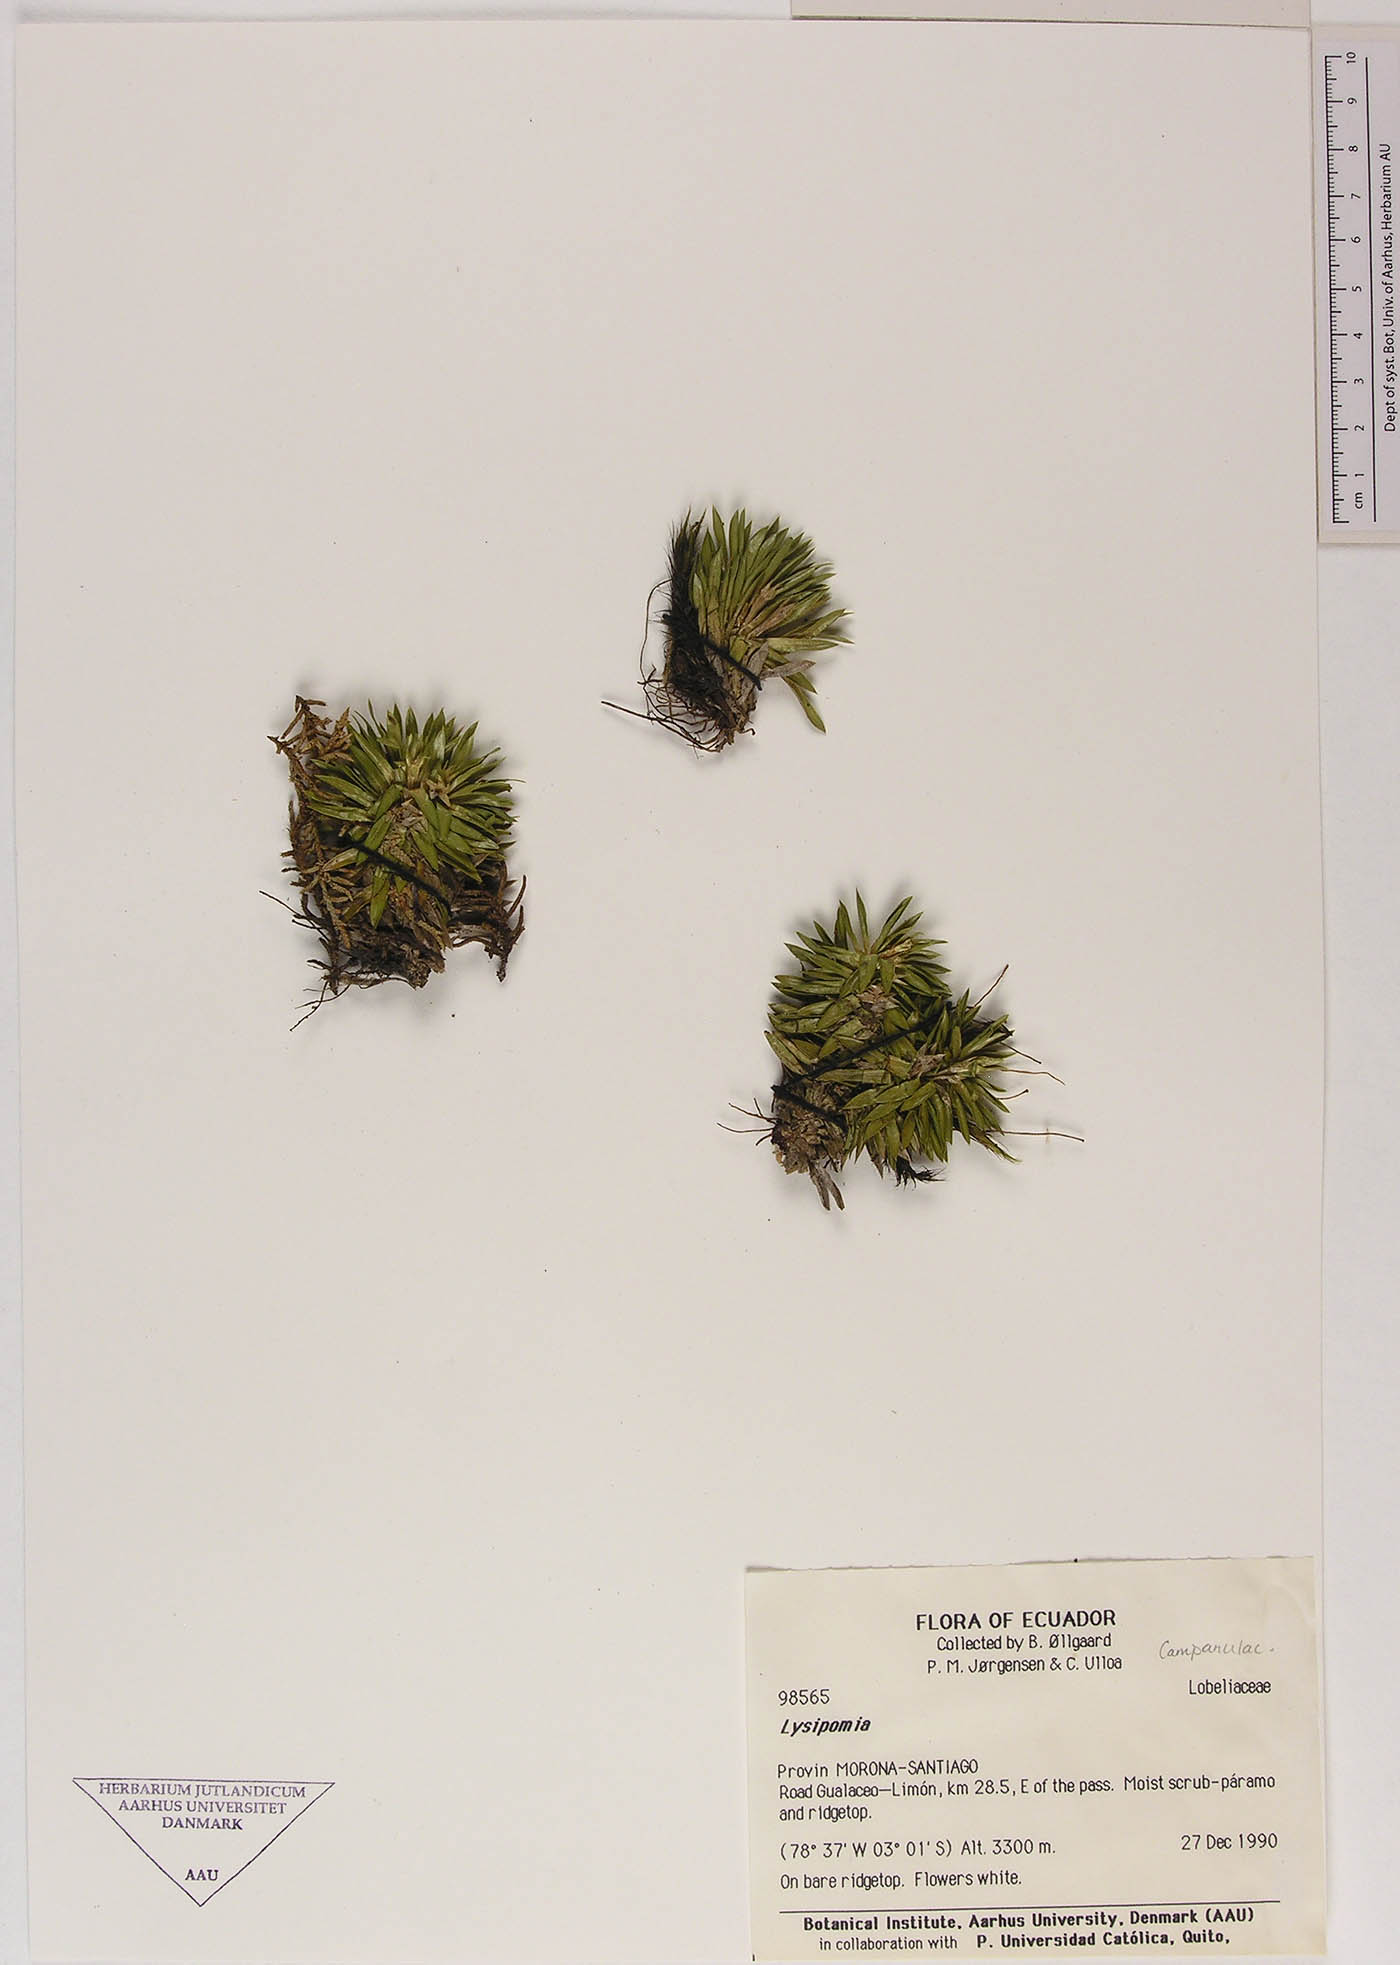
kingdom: Plantae
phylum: Tracheophyta
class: Magnoliopsida
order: Asterales
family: Campanulaceae
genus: Lysipomia
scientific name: Lysipomia
